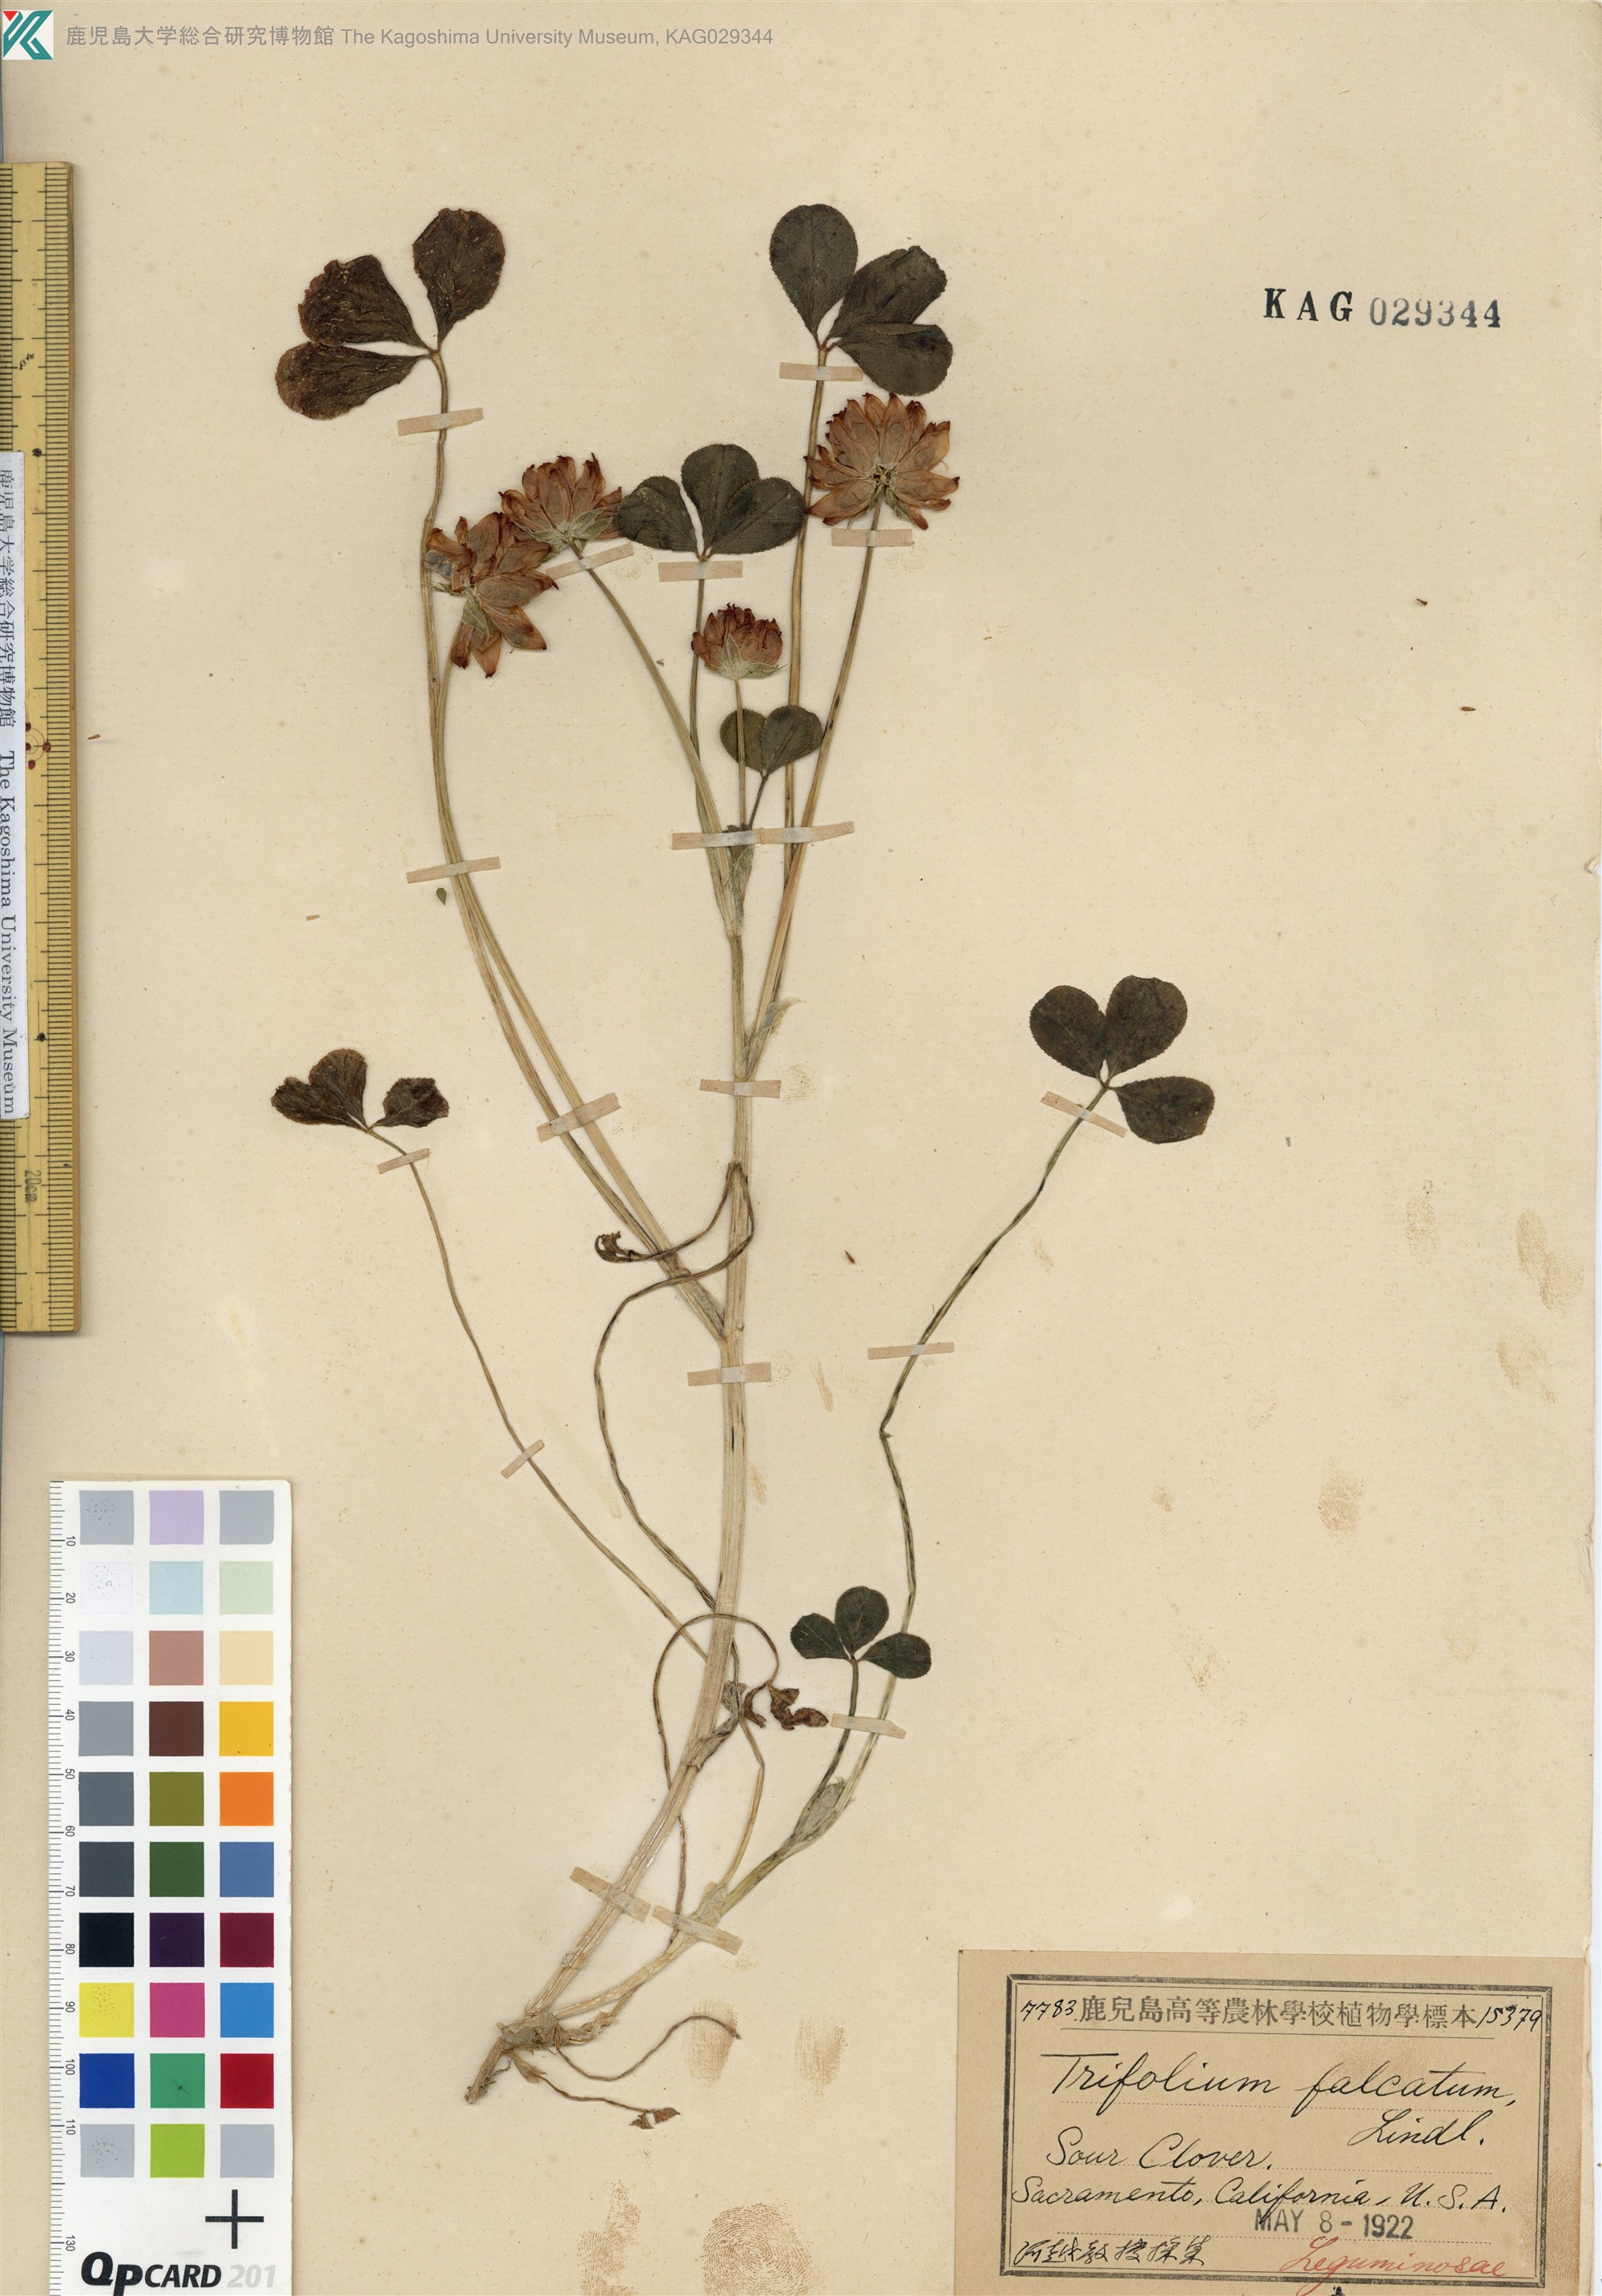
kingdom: Plantae
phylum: Tracheophyta
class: Magnoliopsida
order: Fabales
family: Fabaceae
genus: Trifolium
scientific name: Trifolium fucatum
